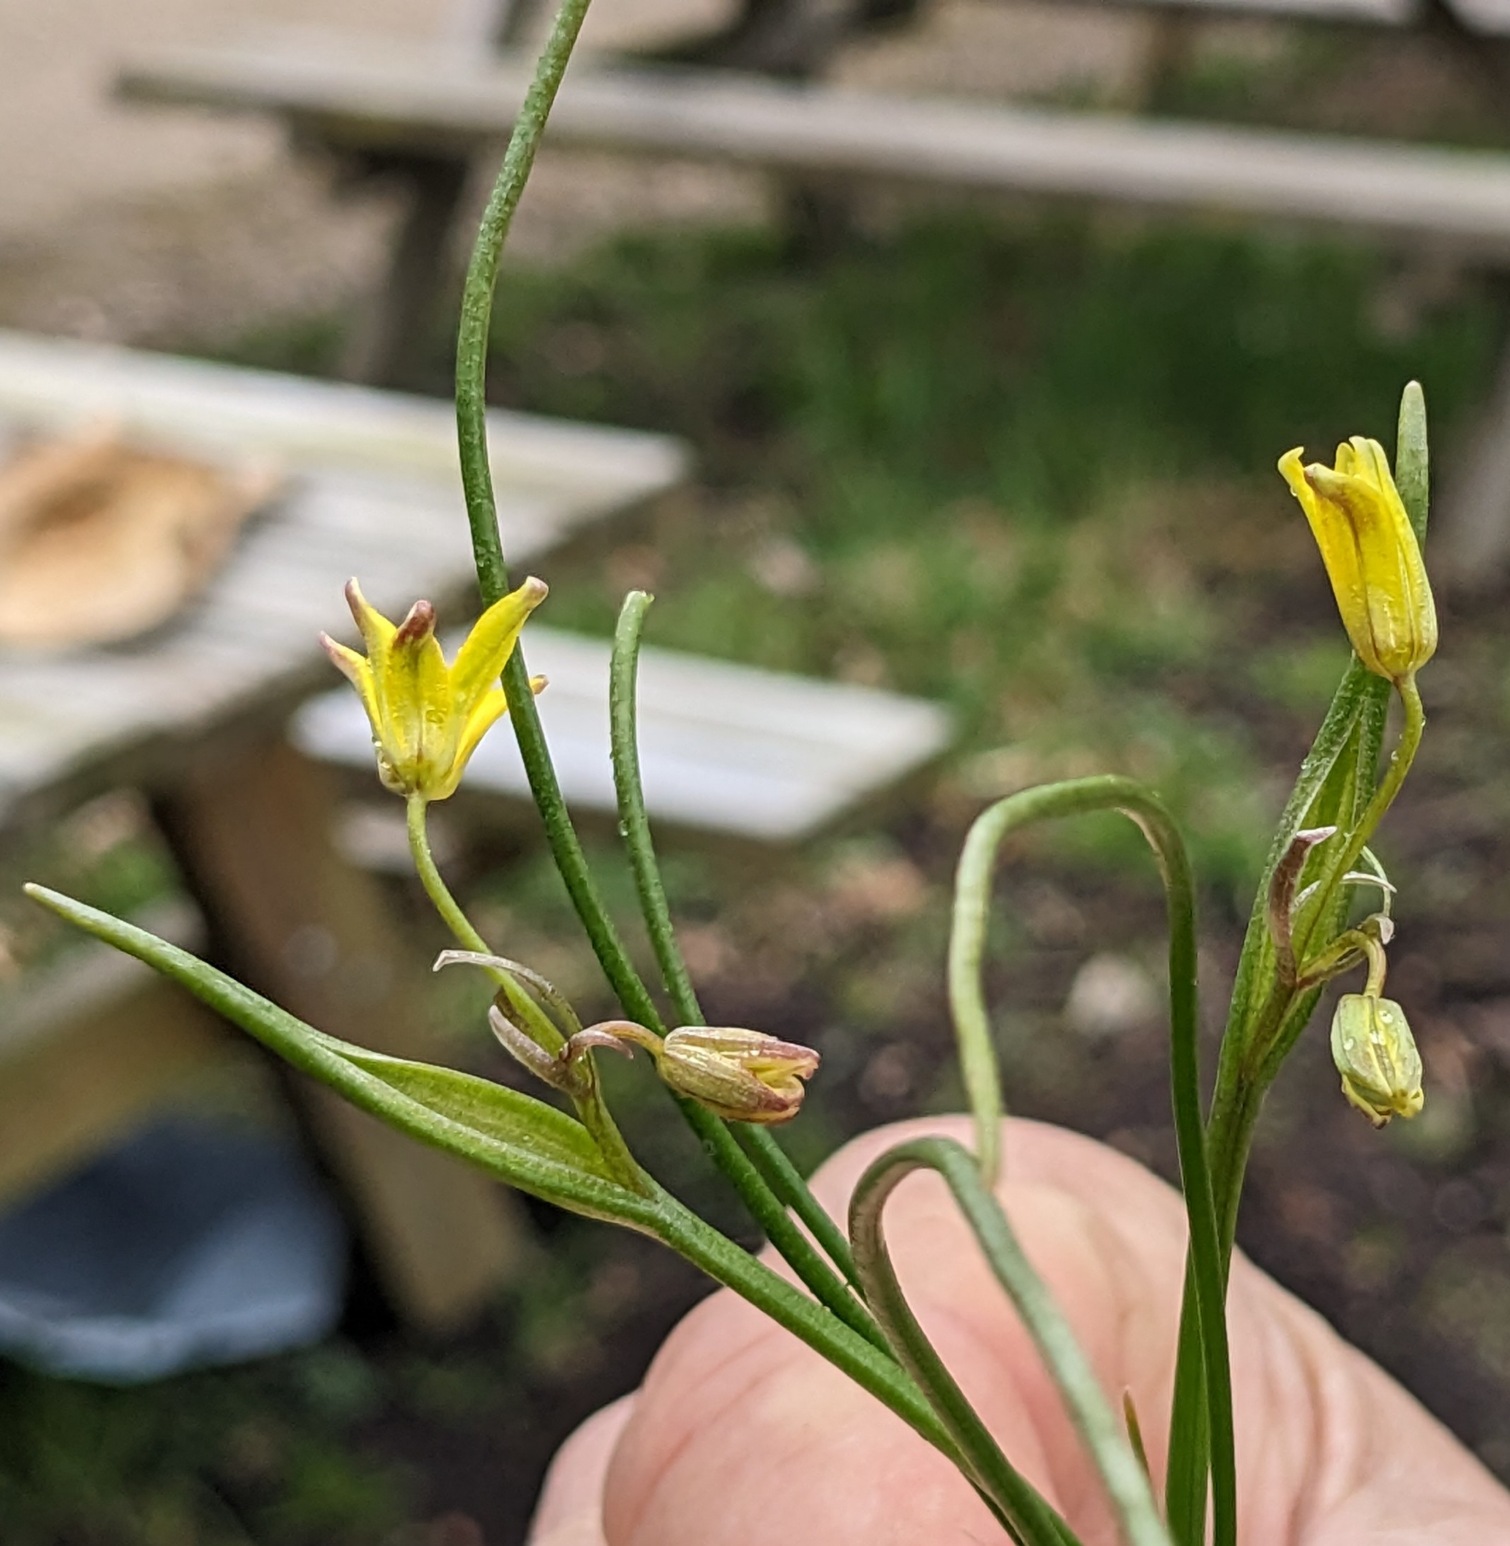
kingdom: Plantae
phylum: Tracheophyta
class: Liliopsida
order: Liliales
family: Liliaceae
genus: Gagea
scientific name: Gagea spathacea
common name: Hylster-guldstjerne
